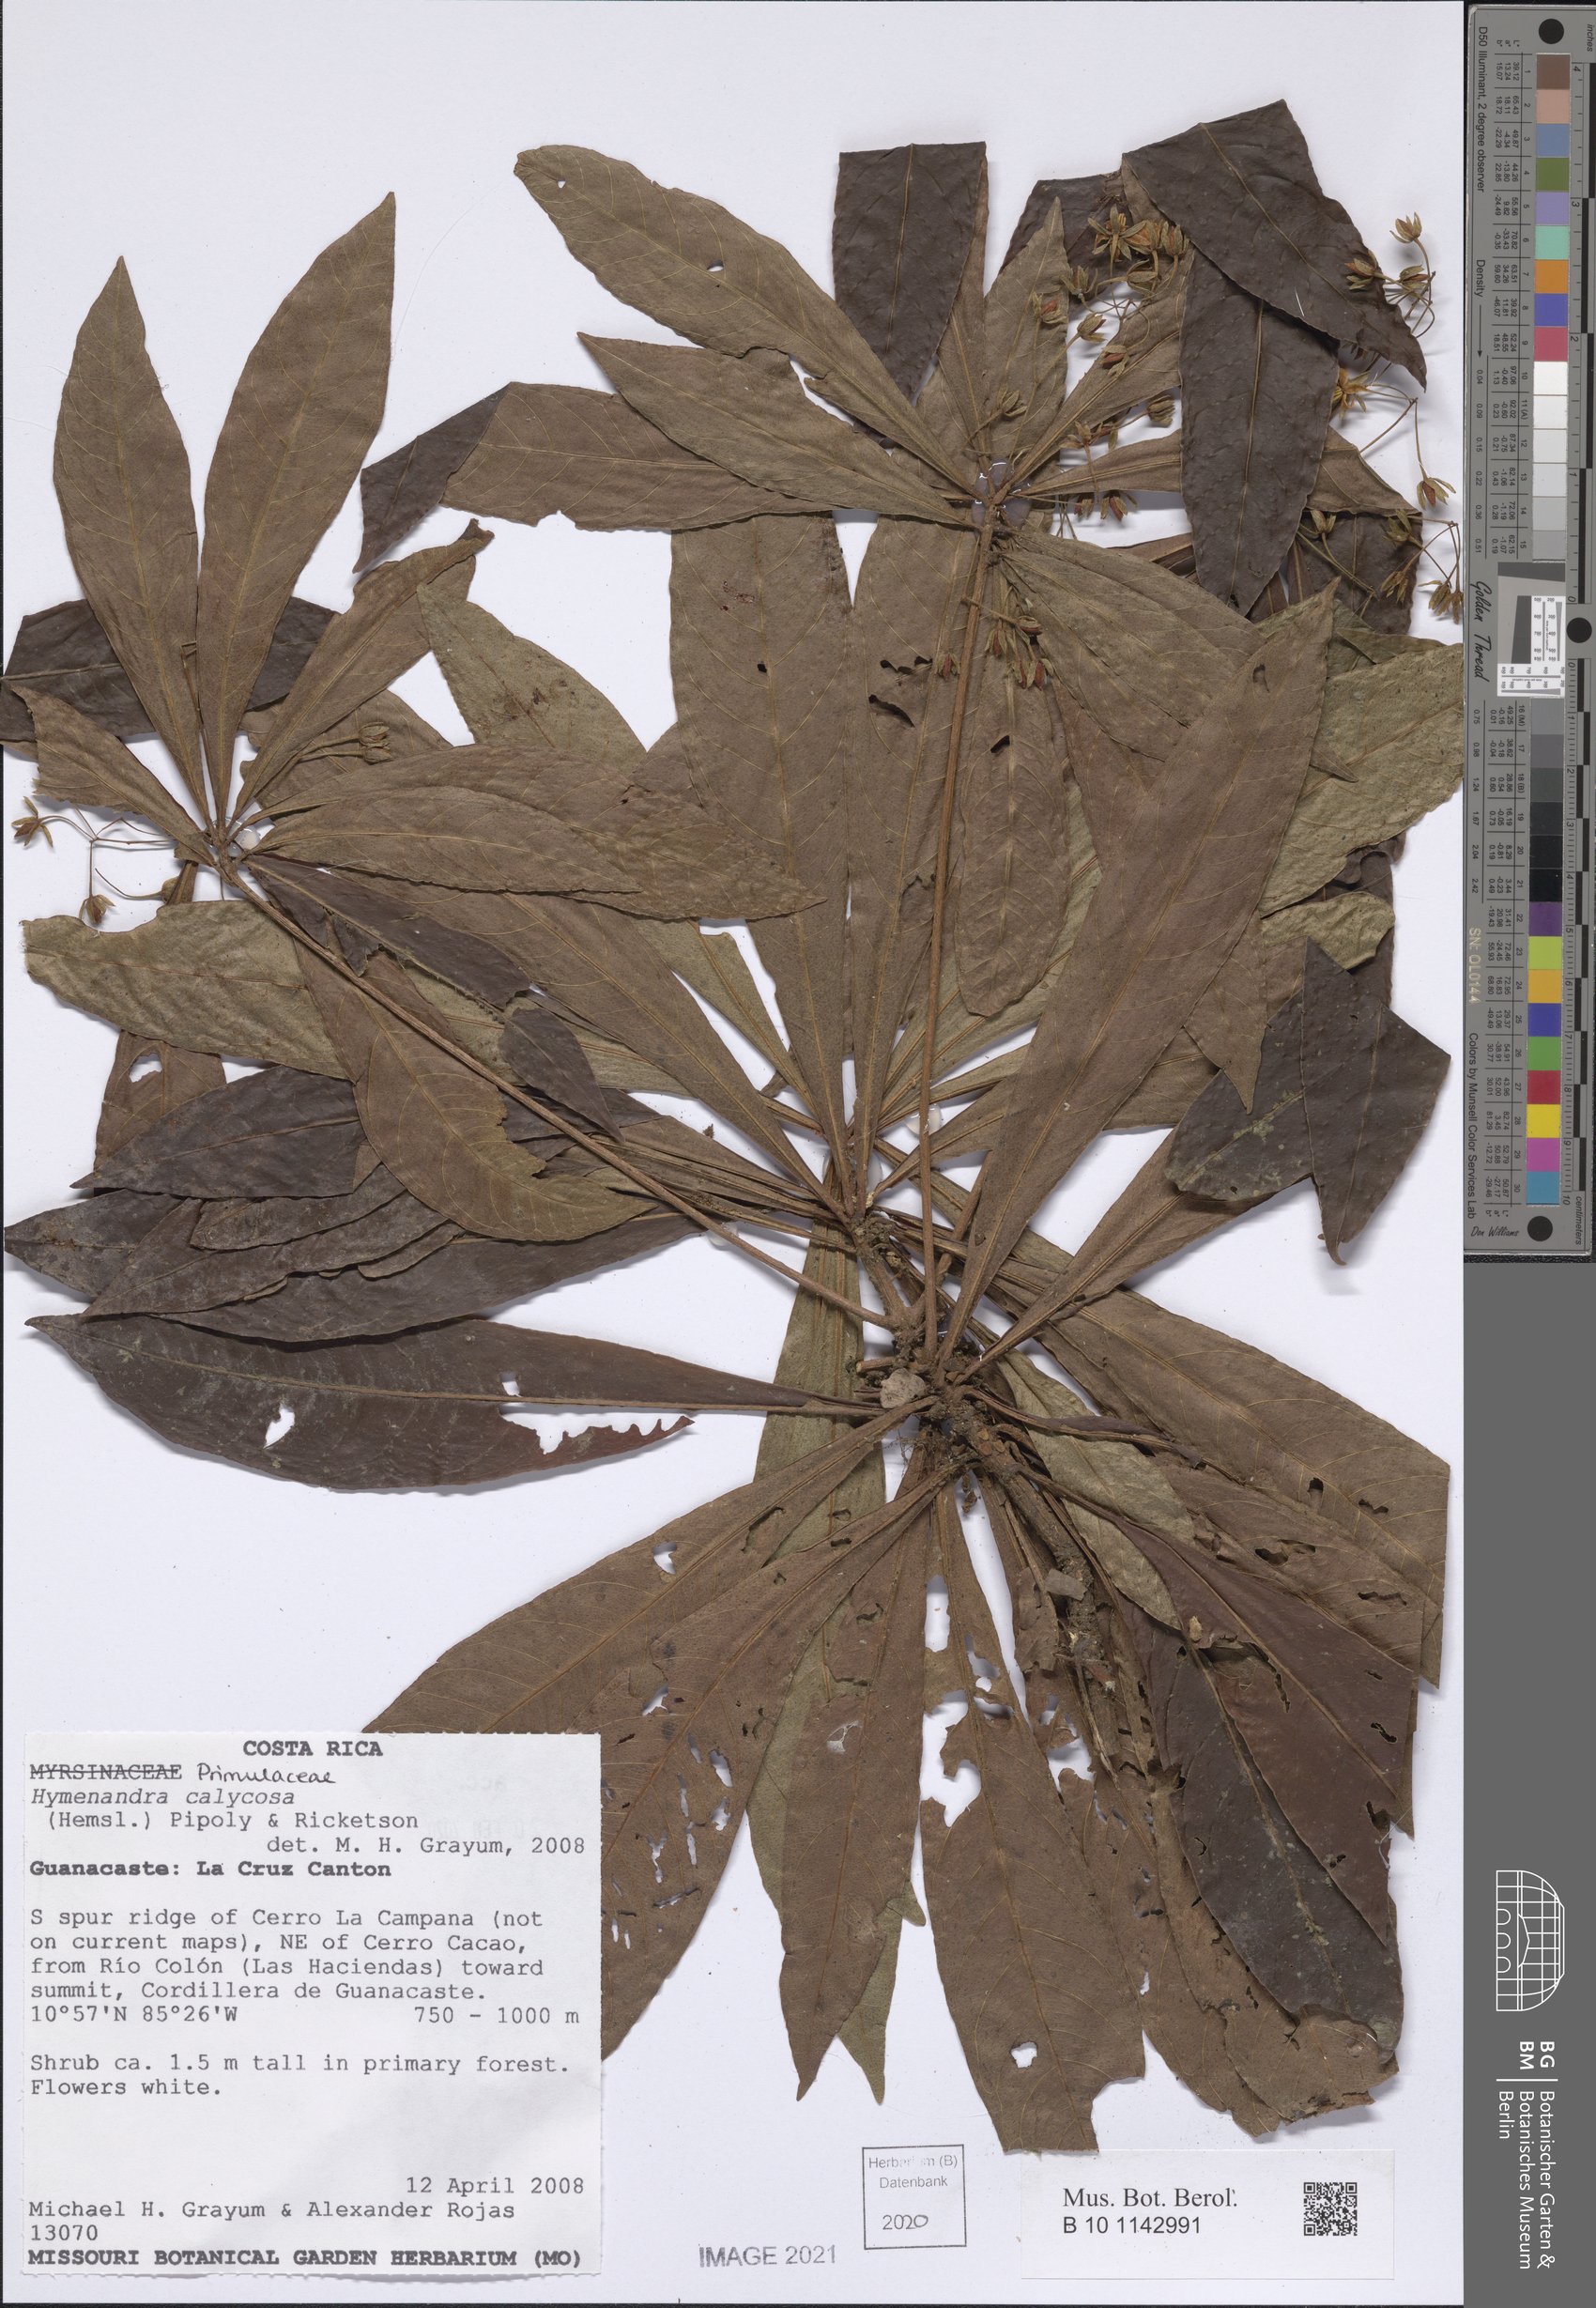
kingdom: Plantae
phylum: Tracheophyta
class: Magnoliopsida
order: Ericales
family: Primulaceae
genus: Hymenandra
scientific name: Hymenandra calycosa
